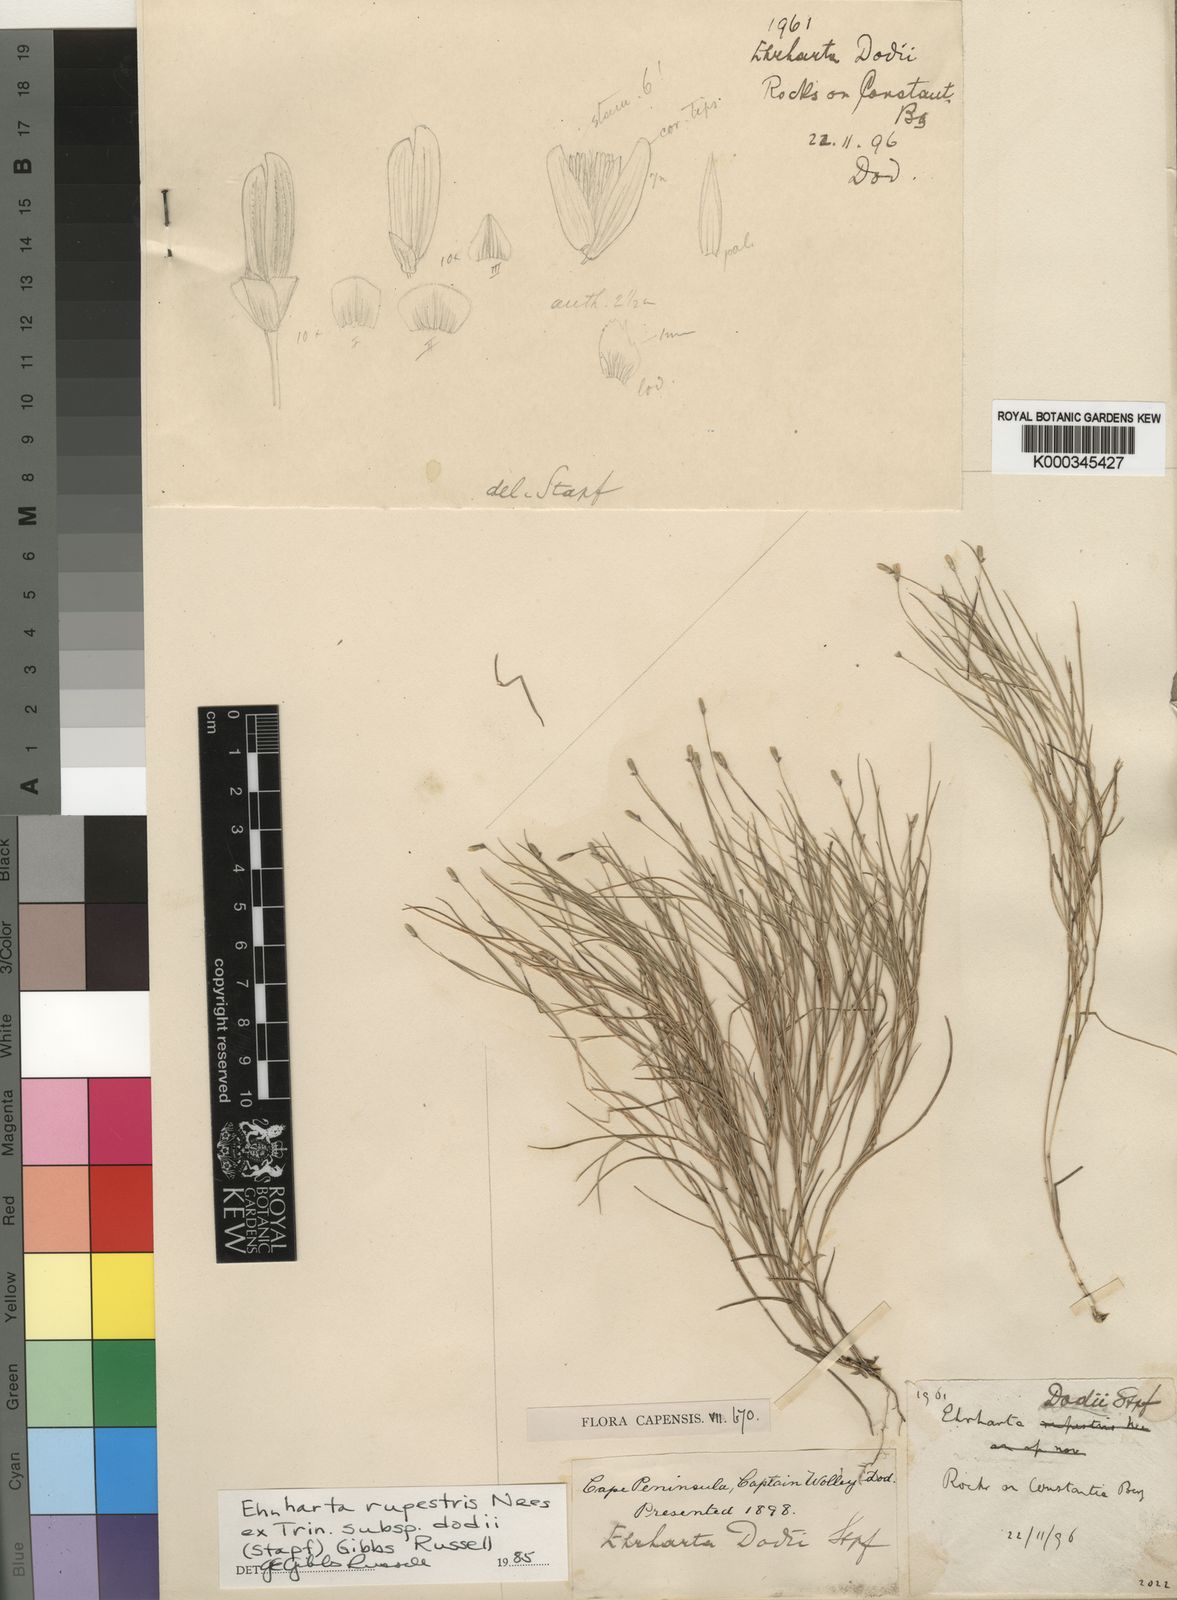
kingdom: Plantae
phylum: Tracheophyta
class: Liliopsida
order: Poales
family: Poaceae
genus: Ehrharta
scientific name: Ehrharta rupestris
